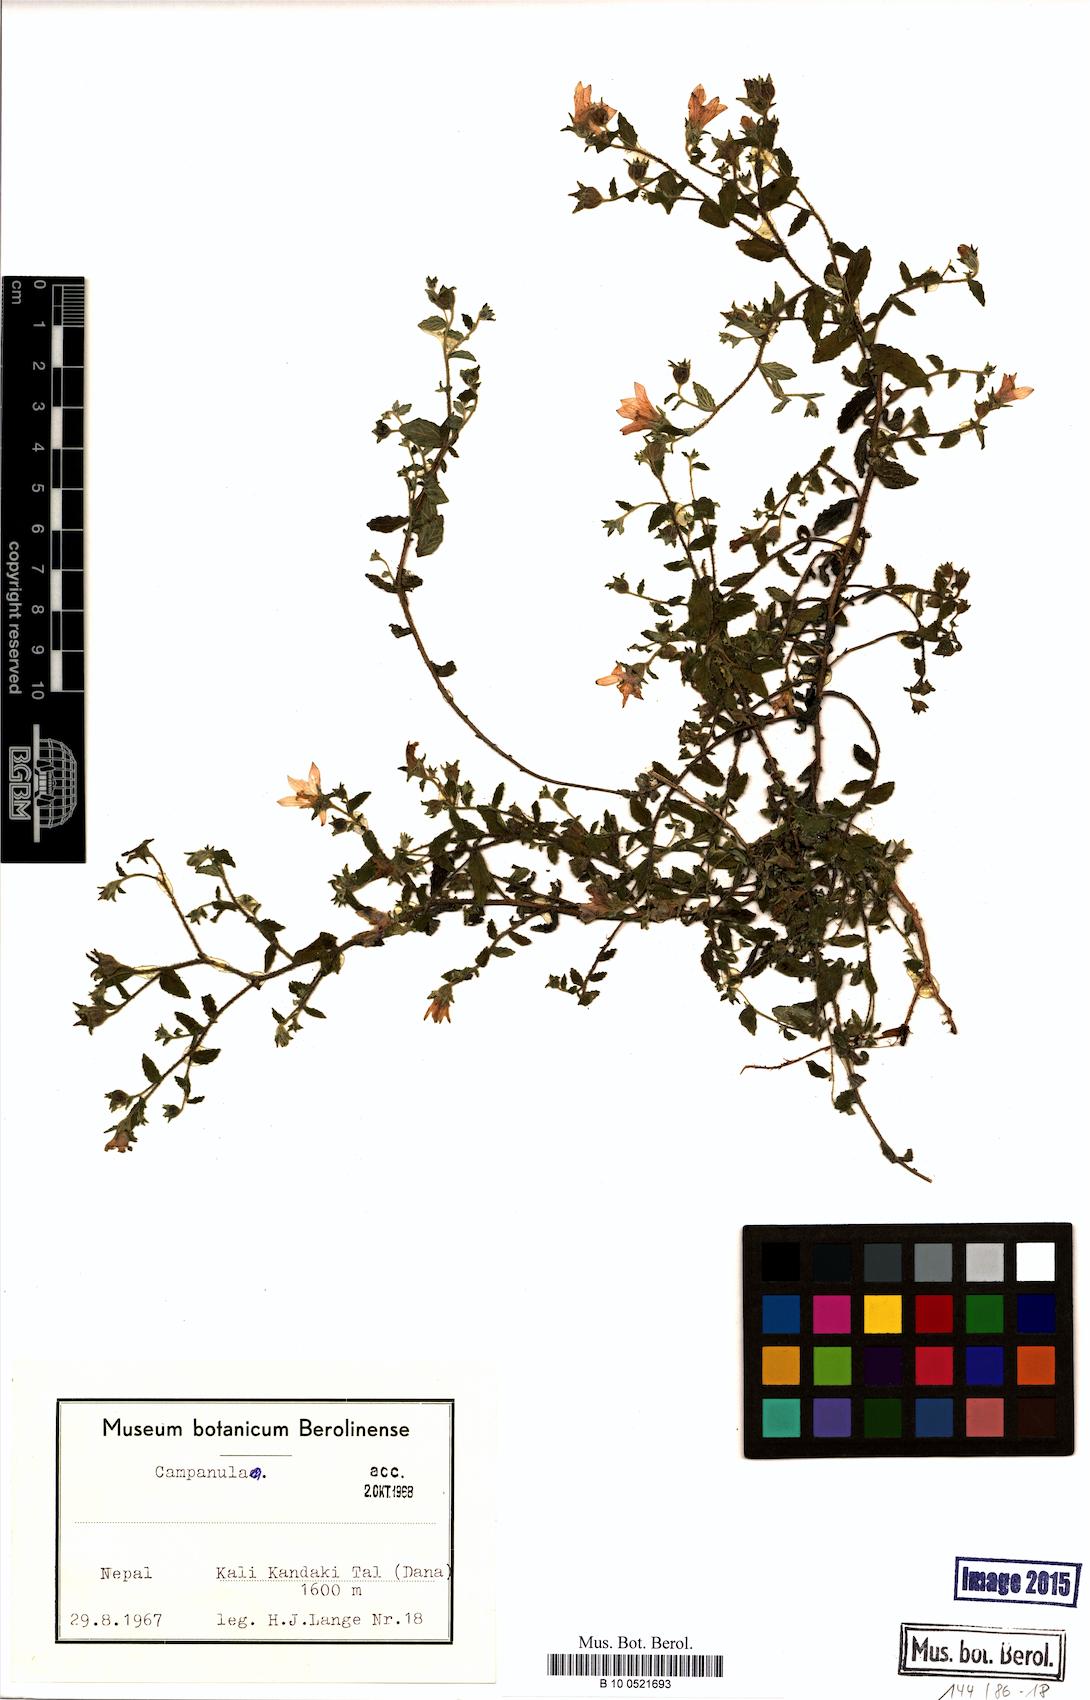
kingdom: Plantae
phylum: Tracheophyta
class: Magnoliopsida
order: Asterales
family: Campanulaceae
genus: Campanula
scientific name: Campanula
